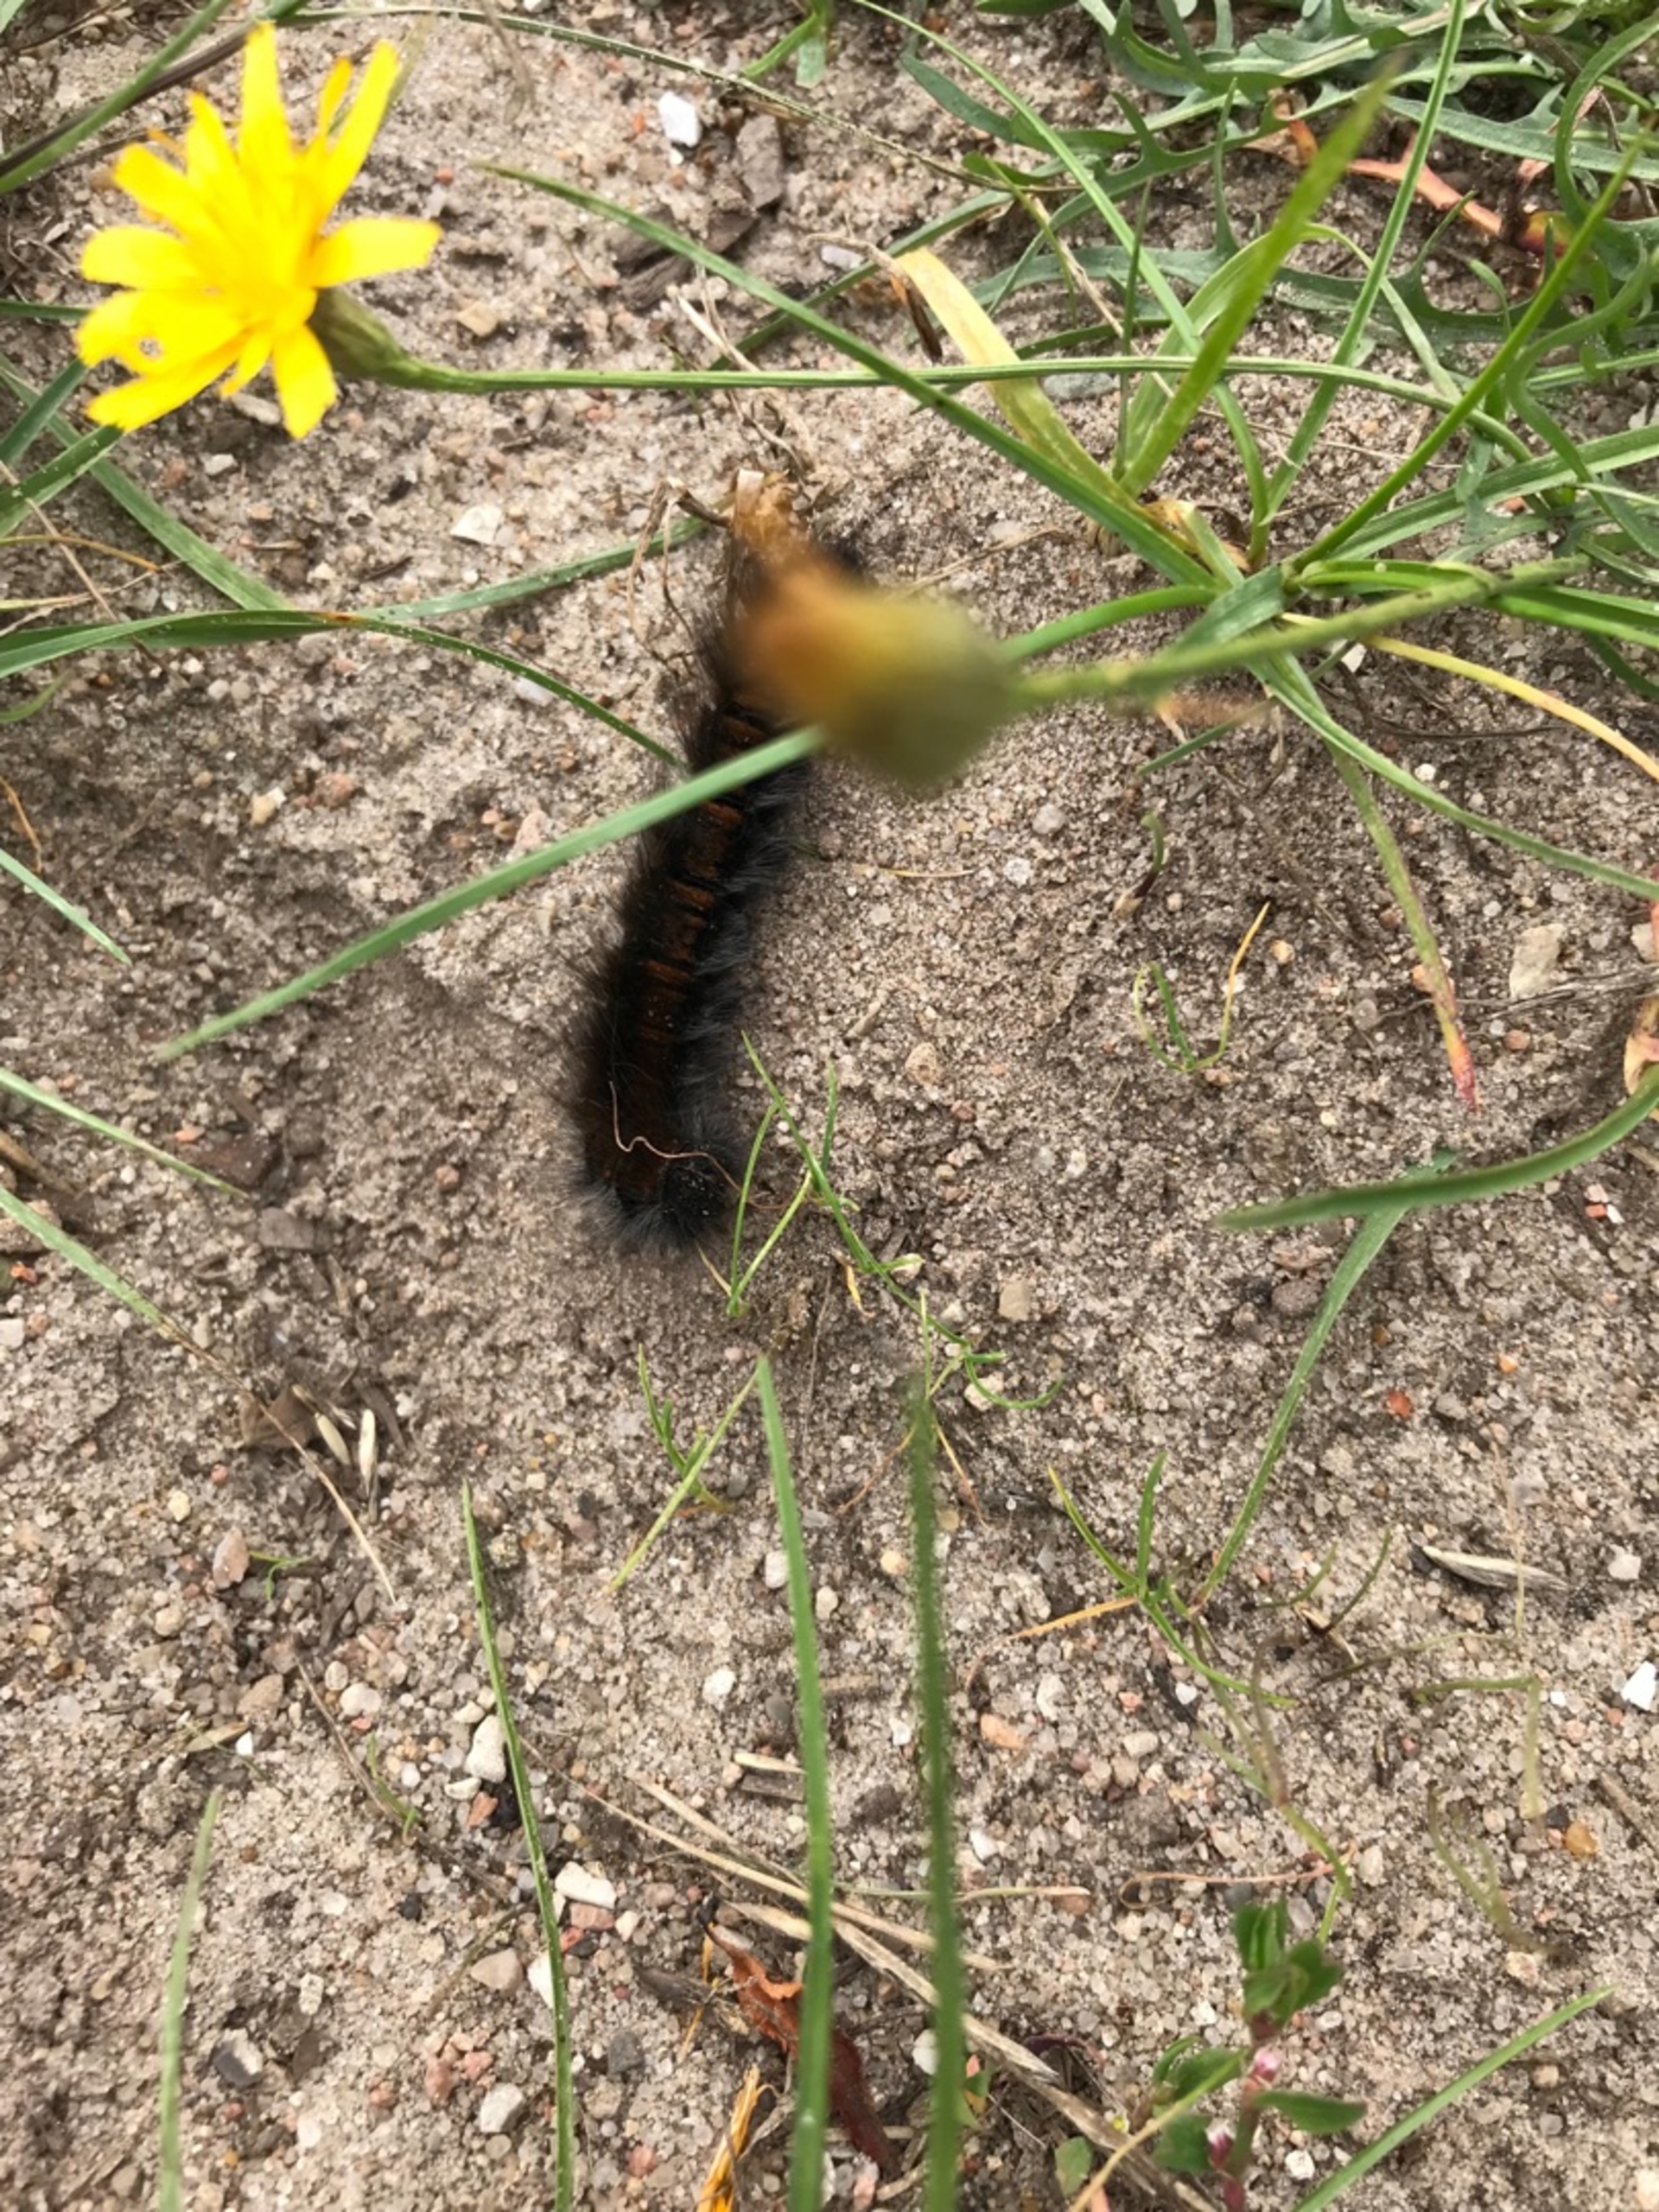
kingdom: Animalia
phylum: Arthropoda
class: Insecta
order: Lepidoptera
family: Lasiocampidae
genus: Macrothylacia
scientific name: Macrothylacia rubi
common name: Brombærspinder
